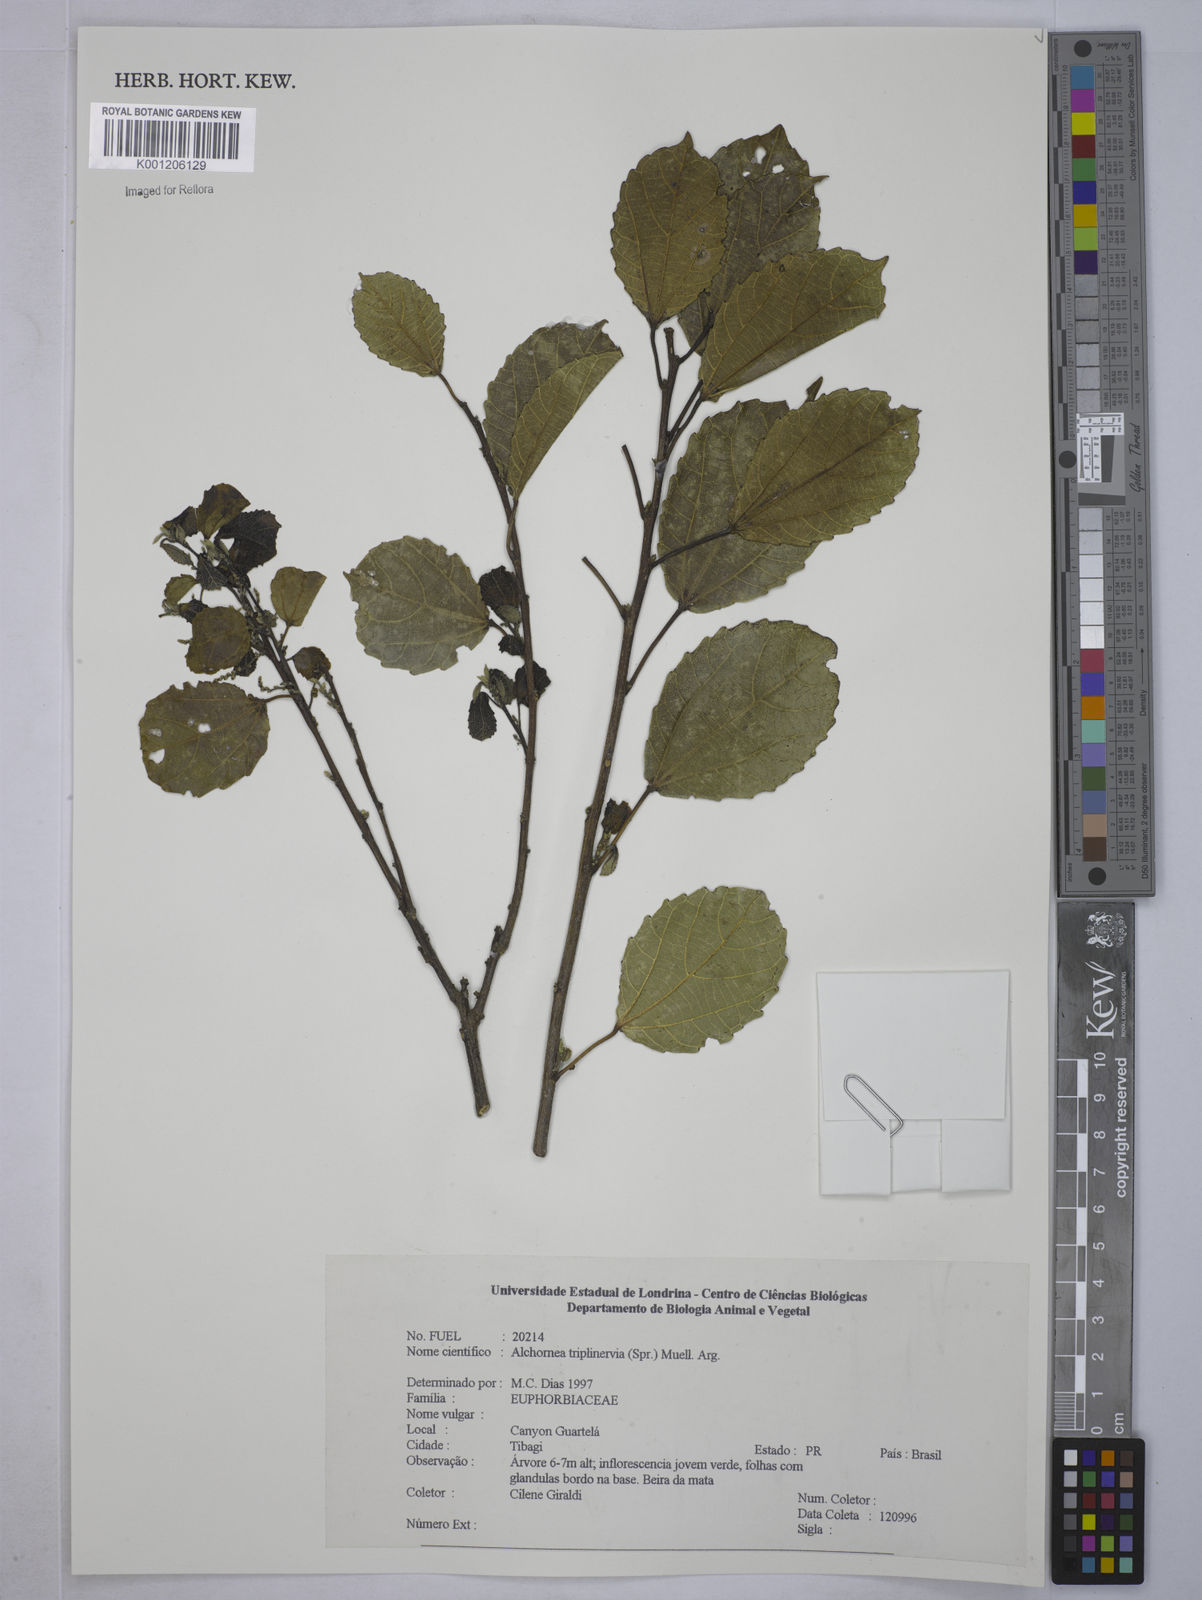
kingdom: Plantae
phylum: Tracheophyta
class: Magnoliopsida
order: Malpighiales
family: Euphorbiaceae
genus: Alchornea
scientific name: Alchornea
